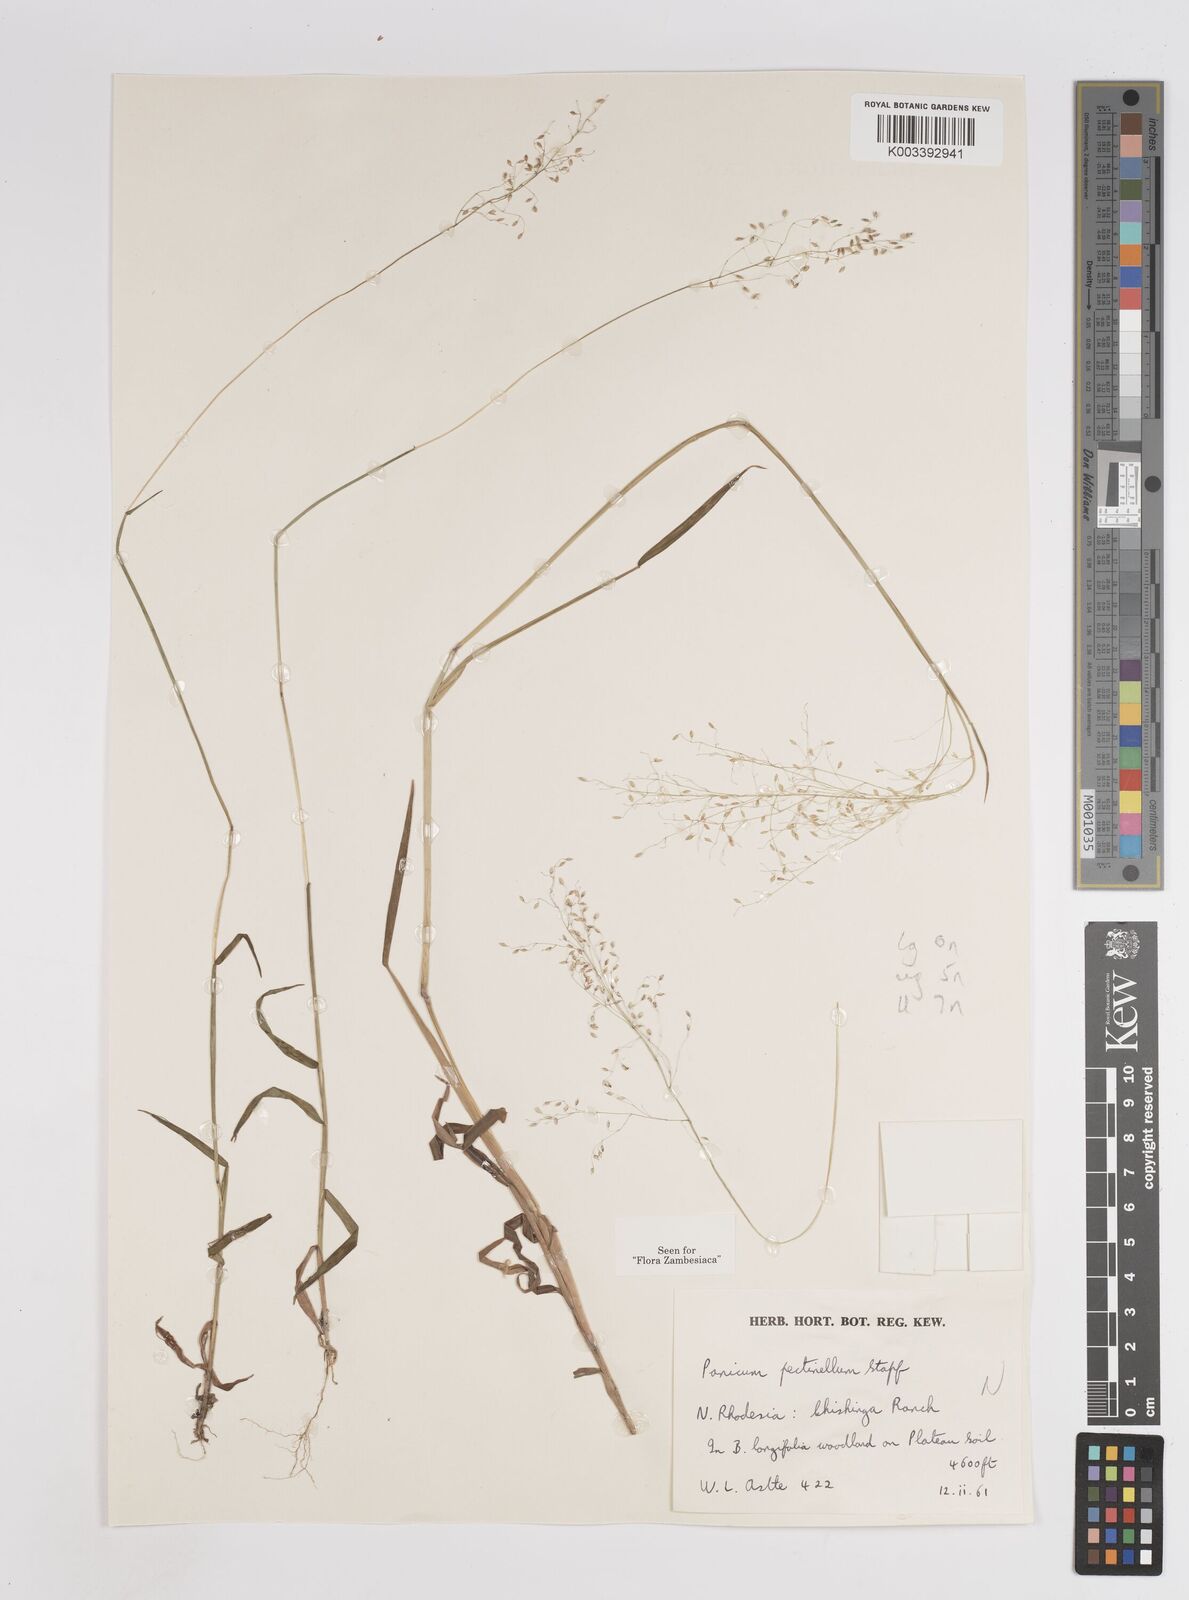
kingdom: Plantae
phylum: Tracheophyta
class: Liliopsida
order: Poales
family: Poaceae
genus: Adenochloa
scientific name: Adenochloa pectinella
